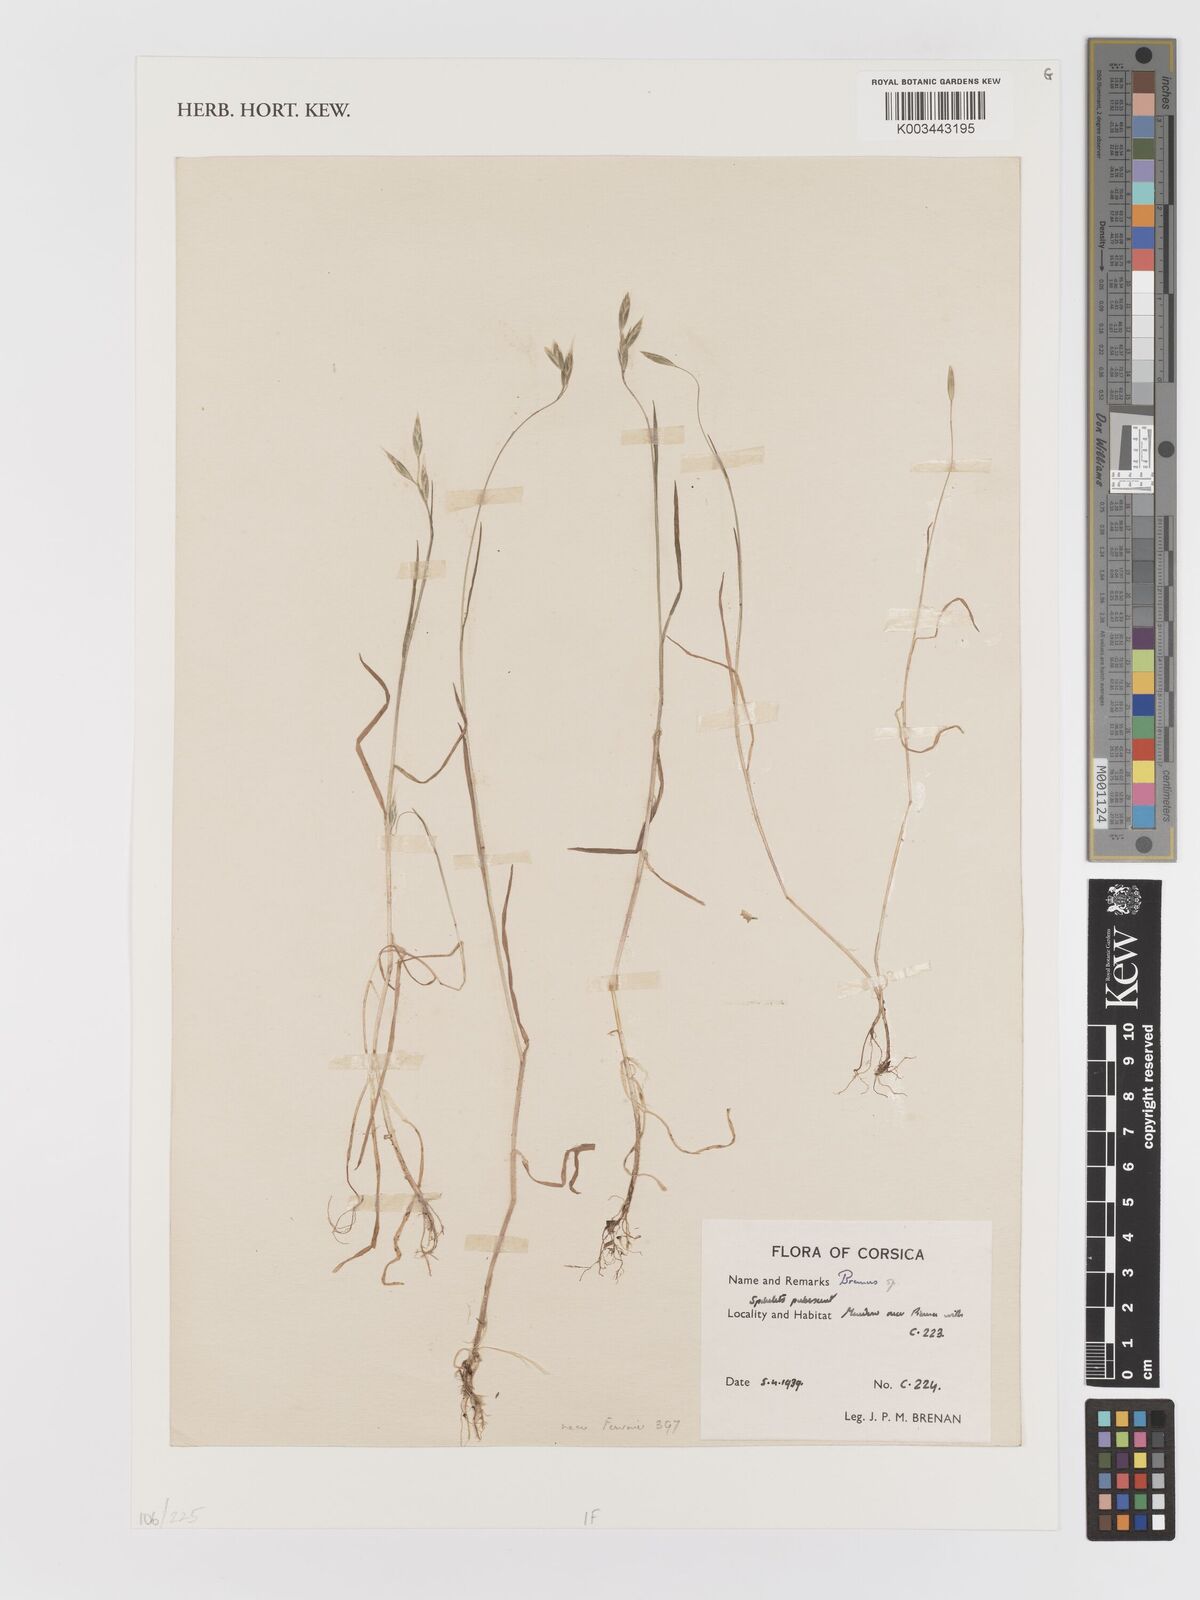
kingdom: Plantae
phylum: Tracheophyta
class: Liliopsida
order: Poales
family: Poaceae
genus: Bromus
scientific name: Bromus
